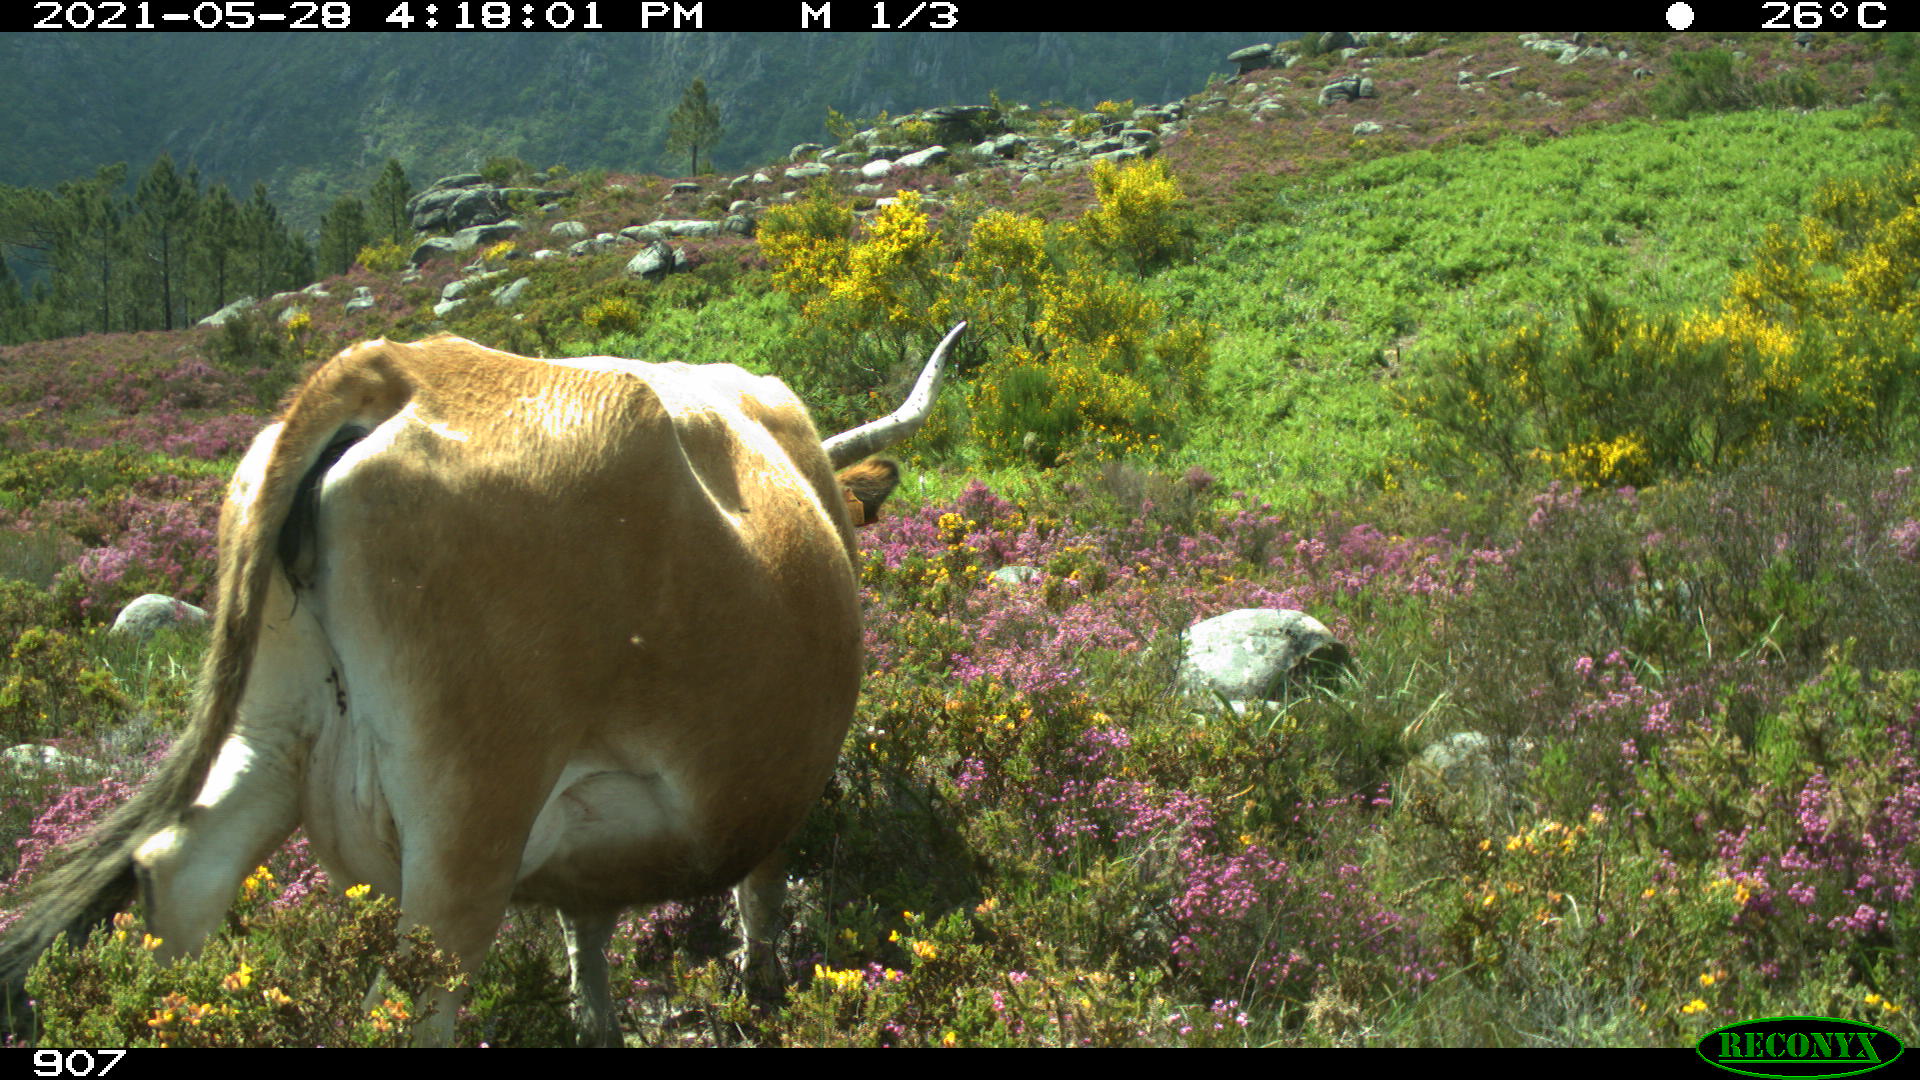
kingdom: Animalia
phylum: Chordata
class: Mammalia
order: Artiodactyla
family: Bovidae
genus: Bos
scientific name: Bos taurus
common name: Domesticated cattle
